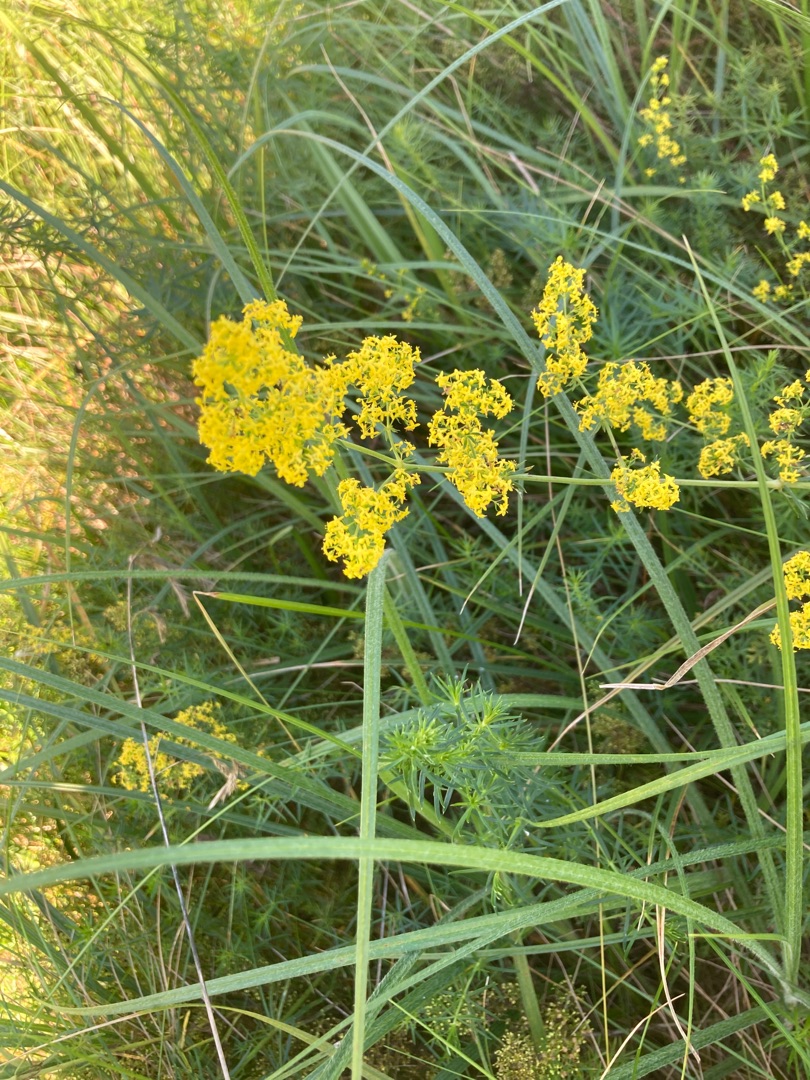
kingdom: Plantae
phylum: Tracheophyta
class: Magnoliopsida
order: Gentianales
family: Rubiaceae
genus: Galium
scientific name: Galium verum
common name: Gul snerre
